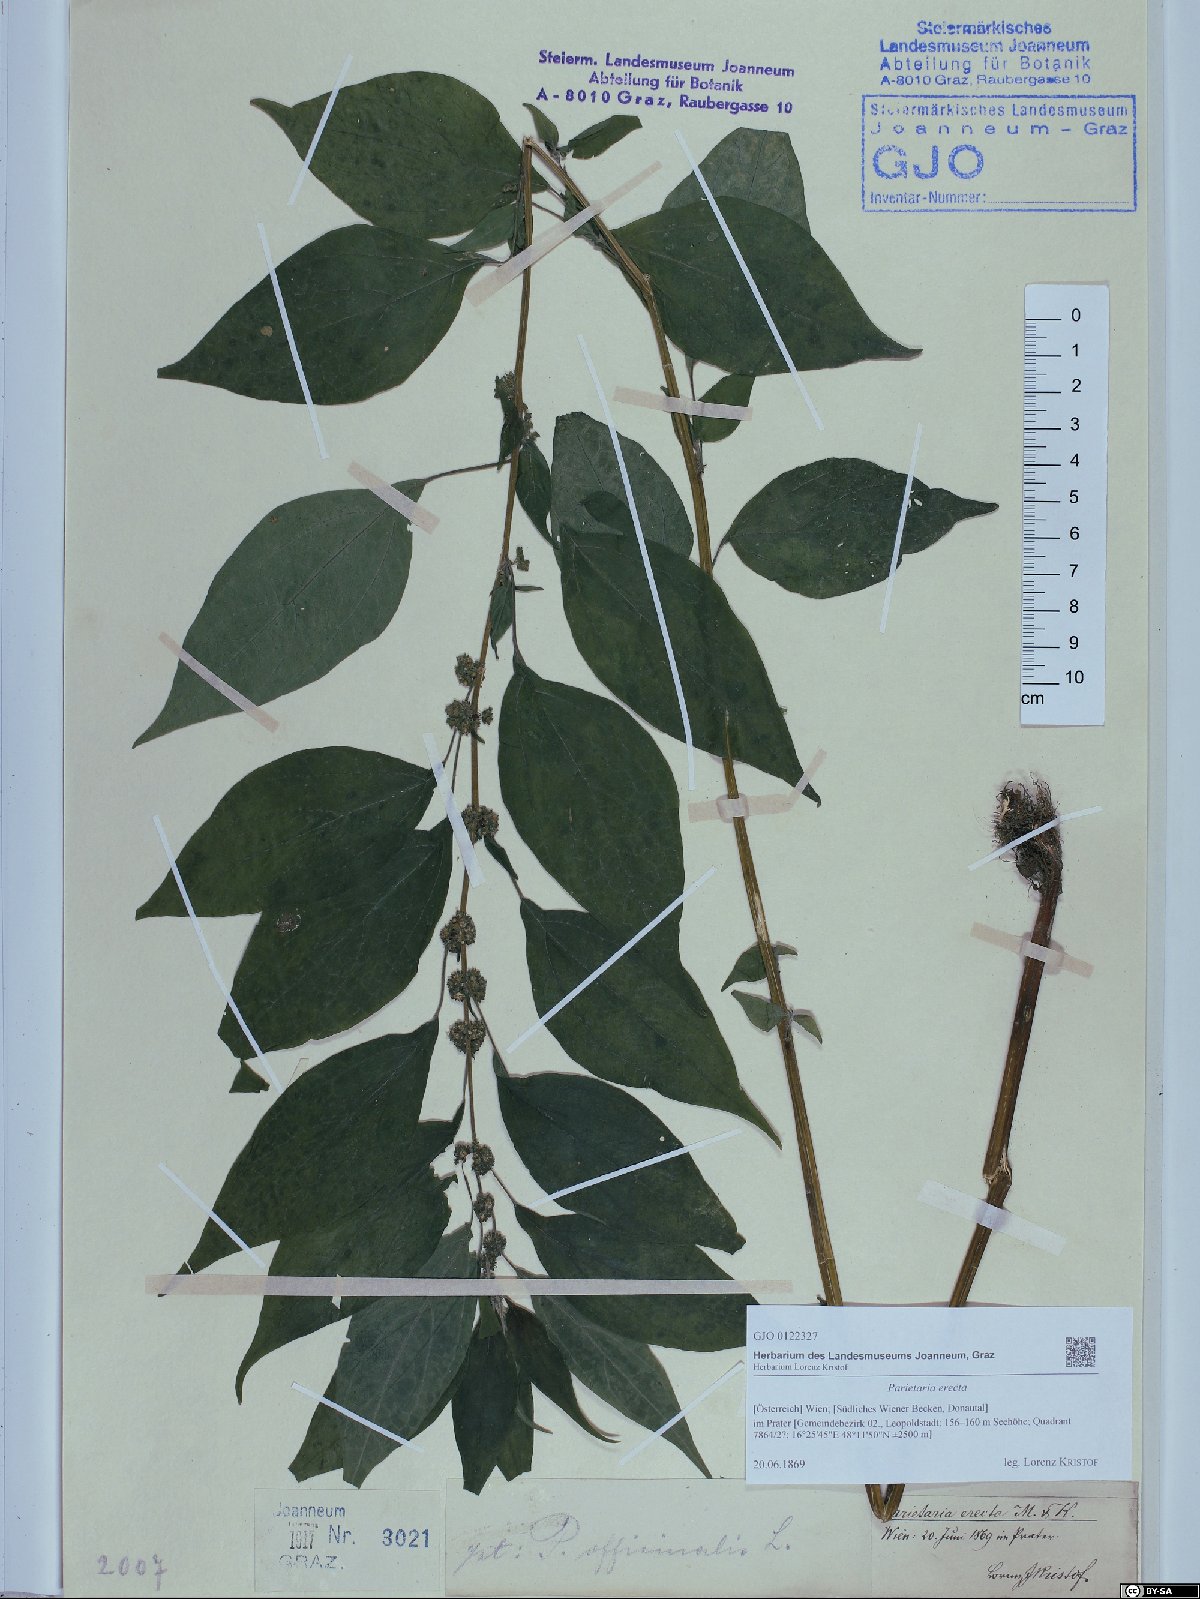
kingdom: Plantae
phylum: Tracheophyta
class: Magnoliopsida
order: Rosales
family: Urticaceae
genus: Parietaria
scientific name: Parietaria officinalis
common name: Eastern pellitory-of-the-wall
